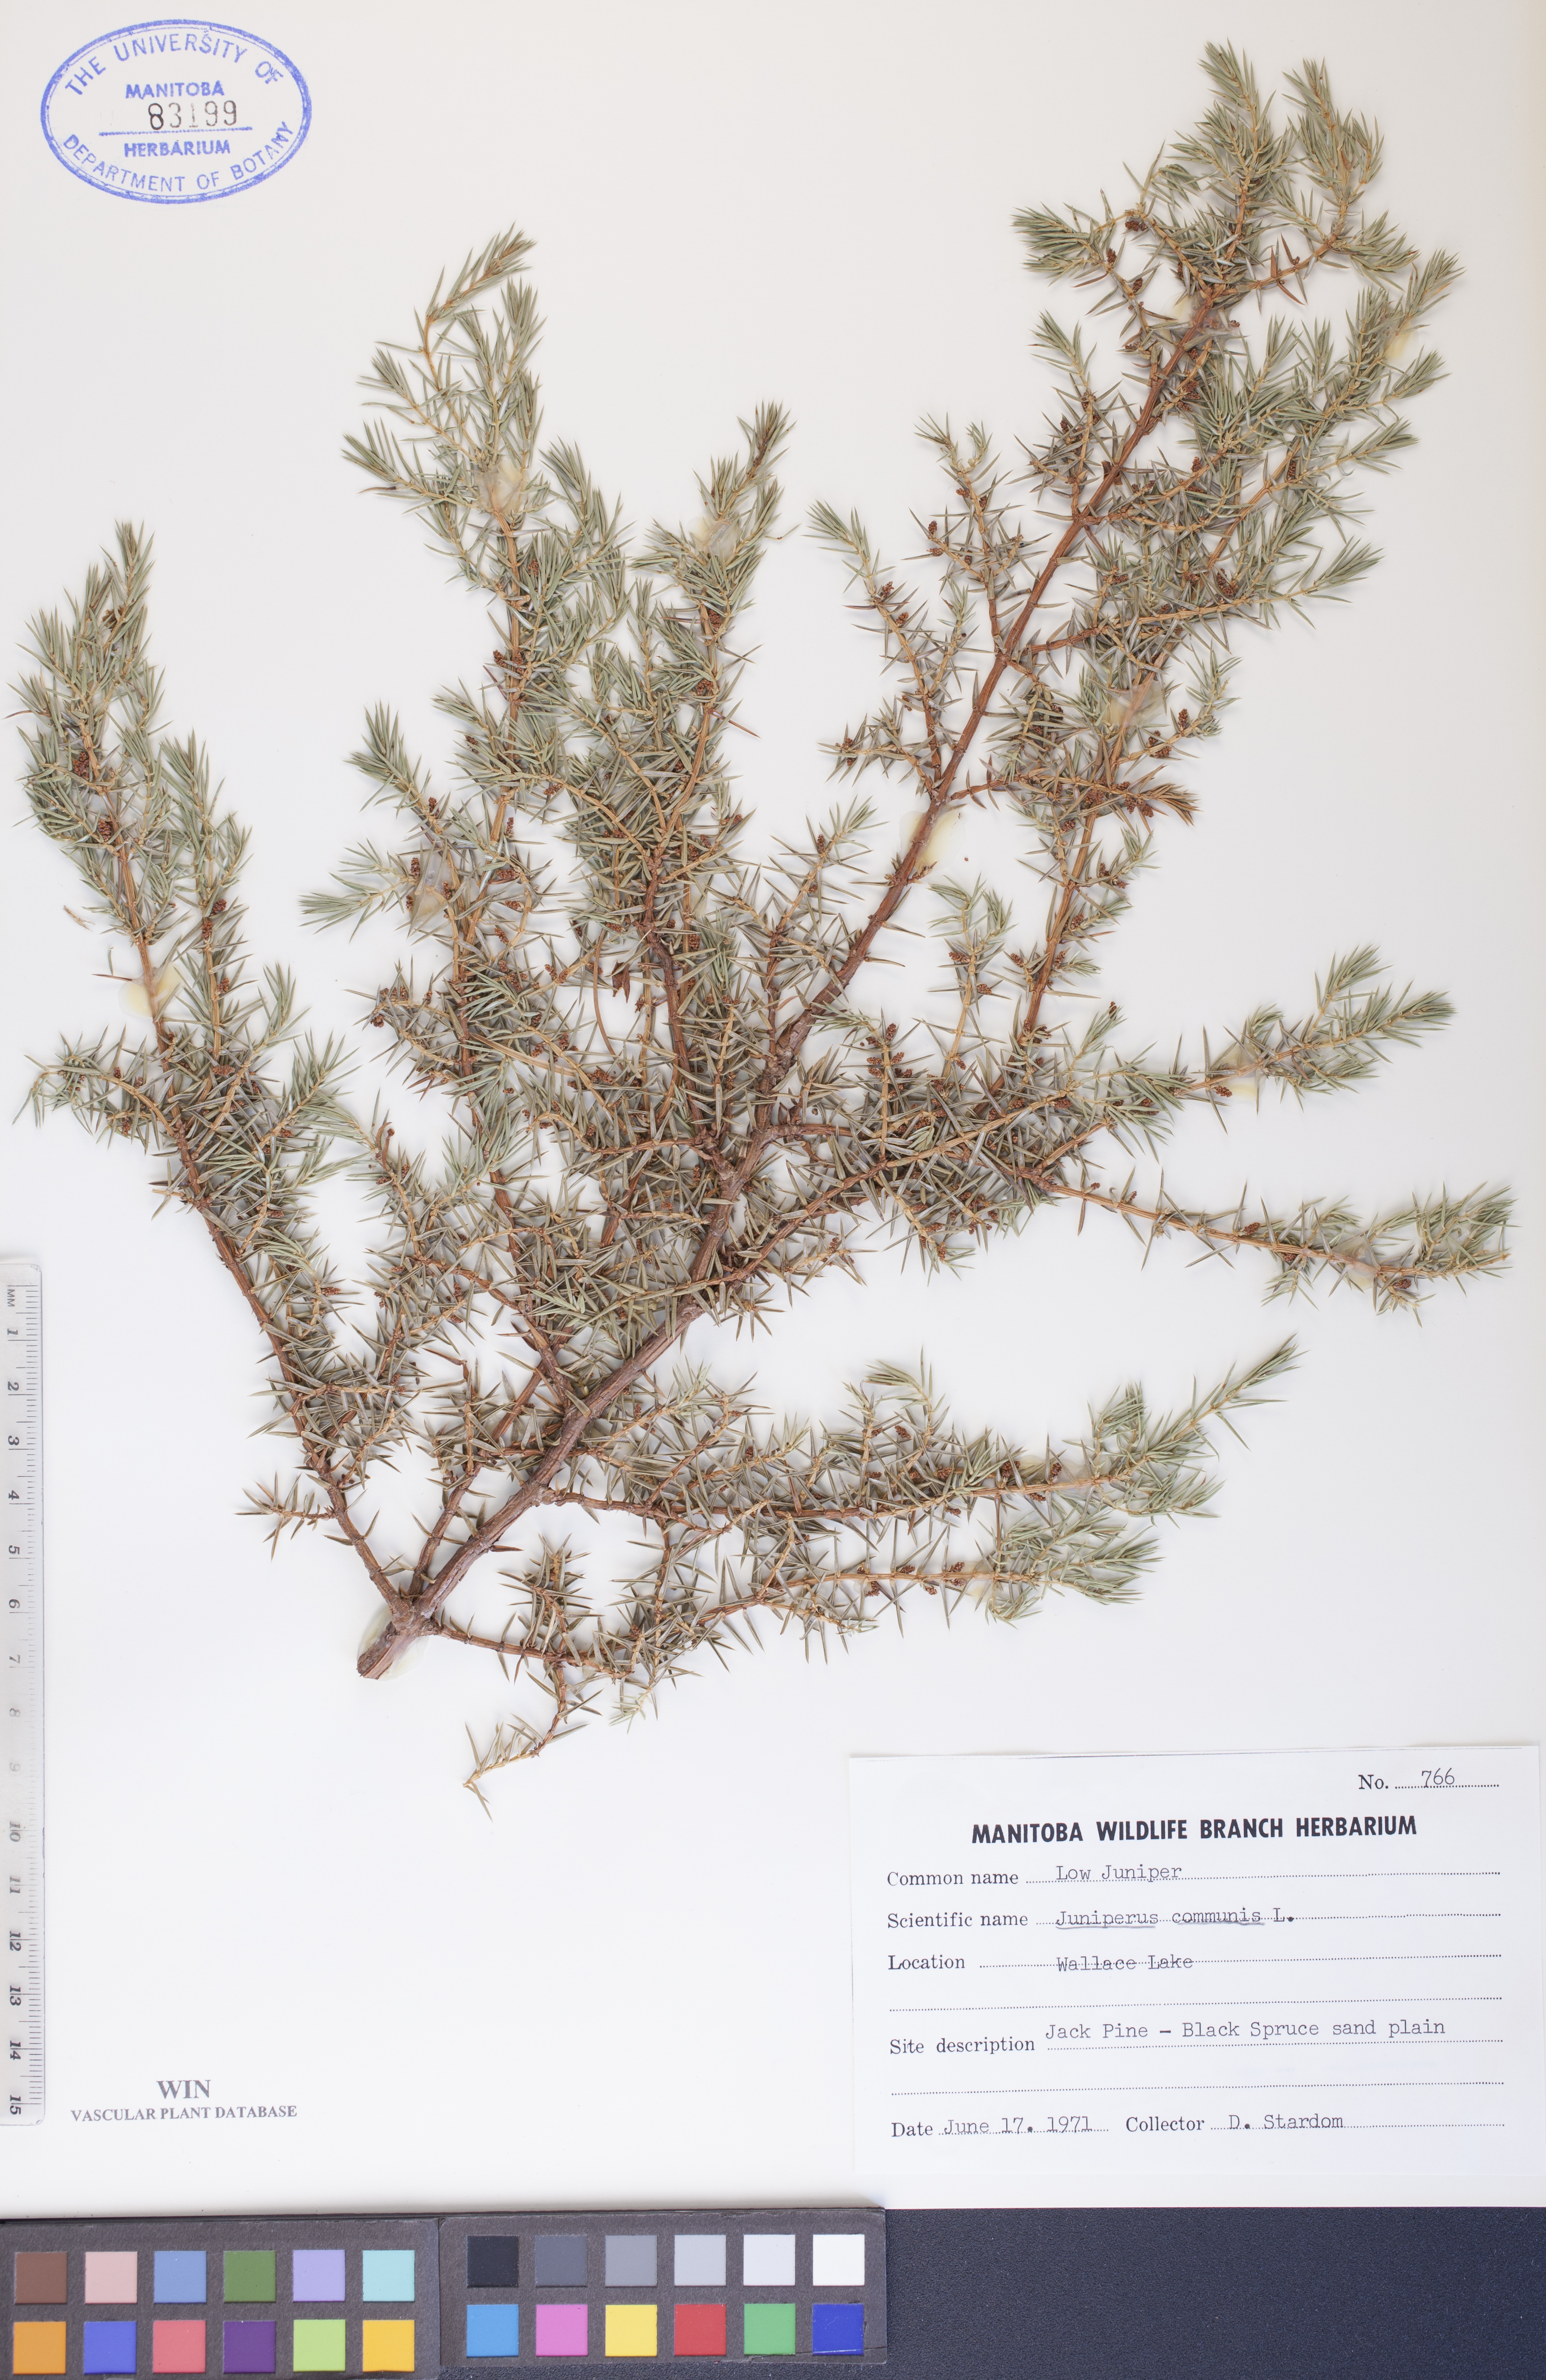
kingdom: Plantae
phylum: Tracheophyta
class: Pinopsida
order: Pinales
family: Cupressaceae
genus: Juniperus
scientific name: Juniperus communis
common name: Common juniper
